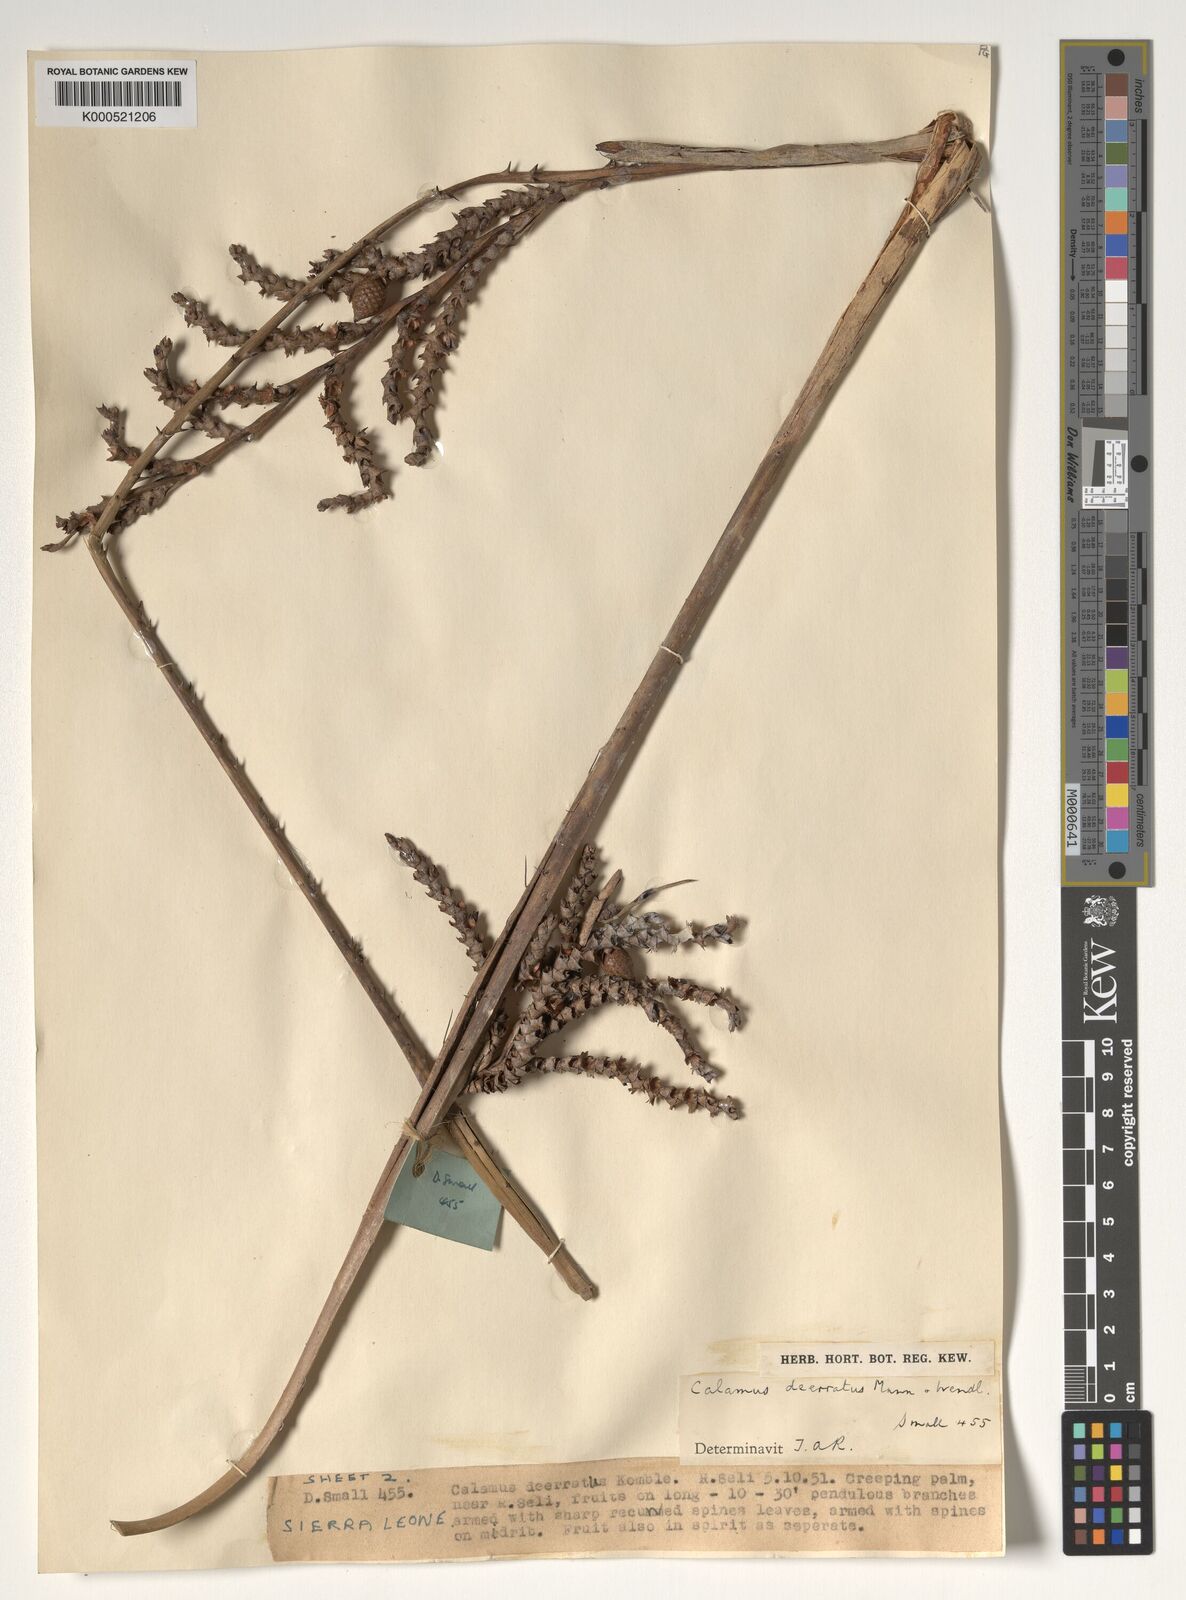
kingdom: Plantae
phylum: Tracheophyta
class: Liliopsida
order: Arecales
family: Arecaceae
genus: Calamus
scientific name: Calamus deerratus
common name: Rattan
